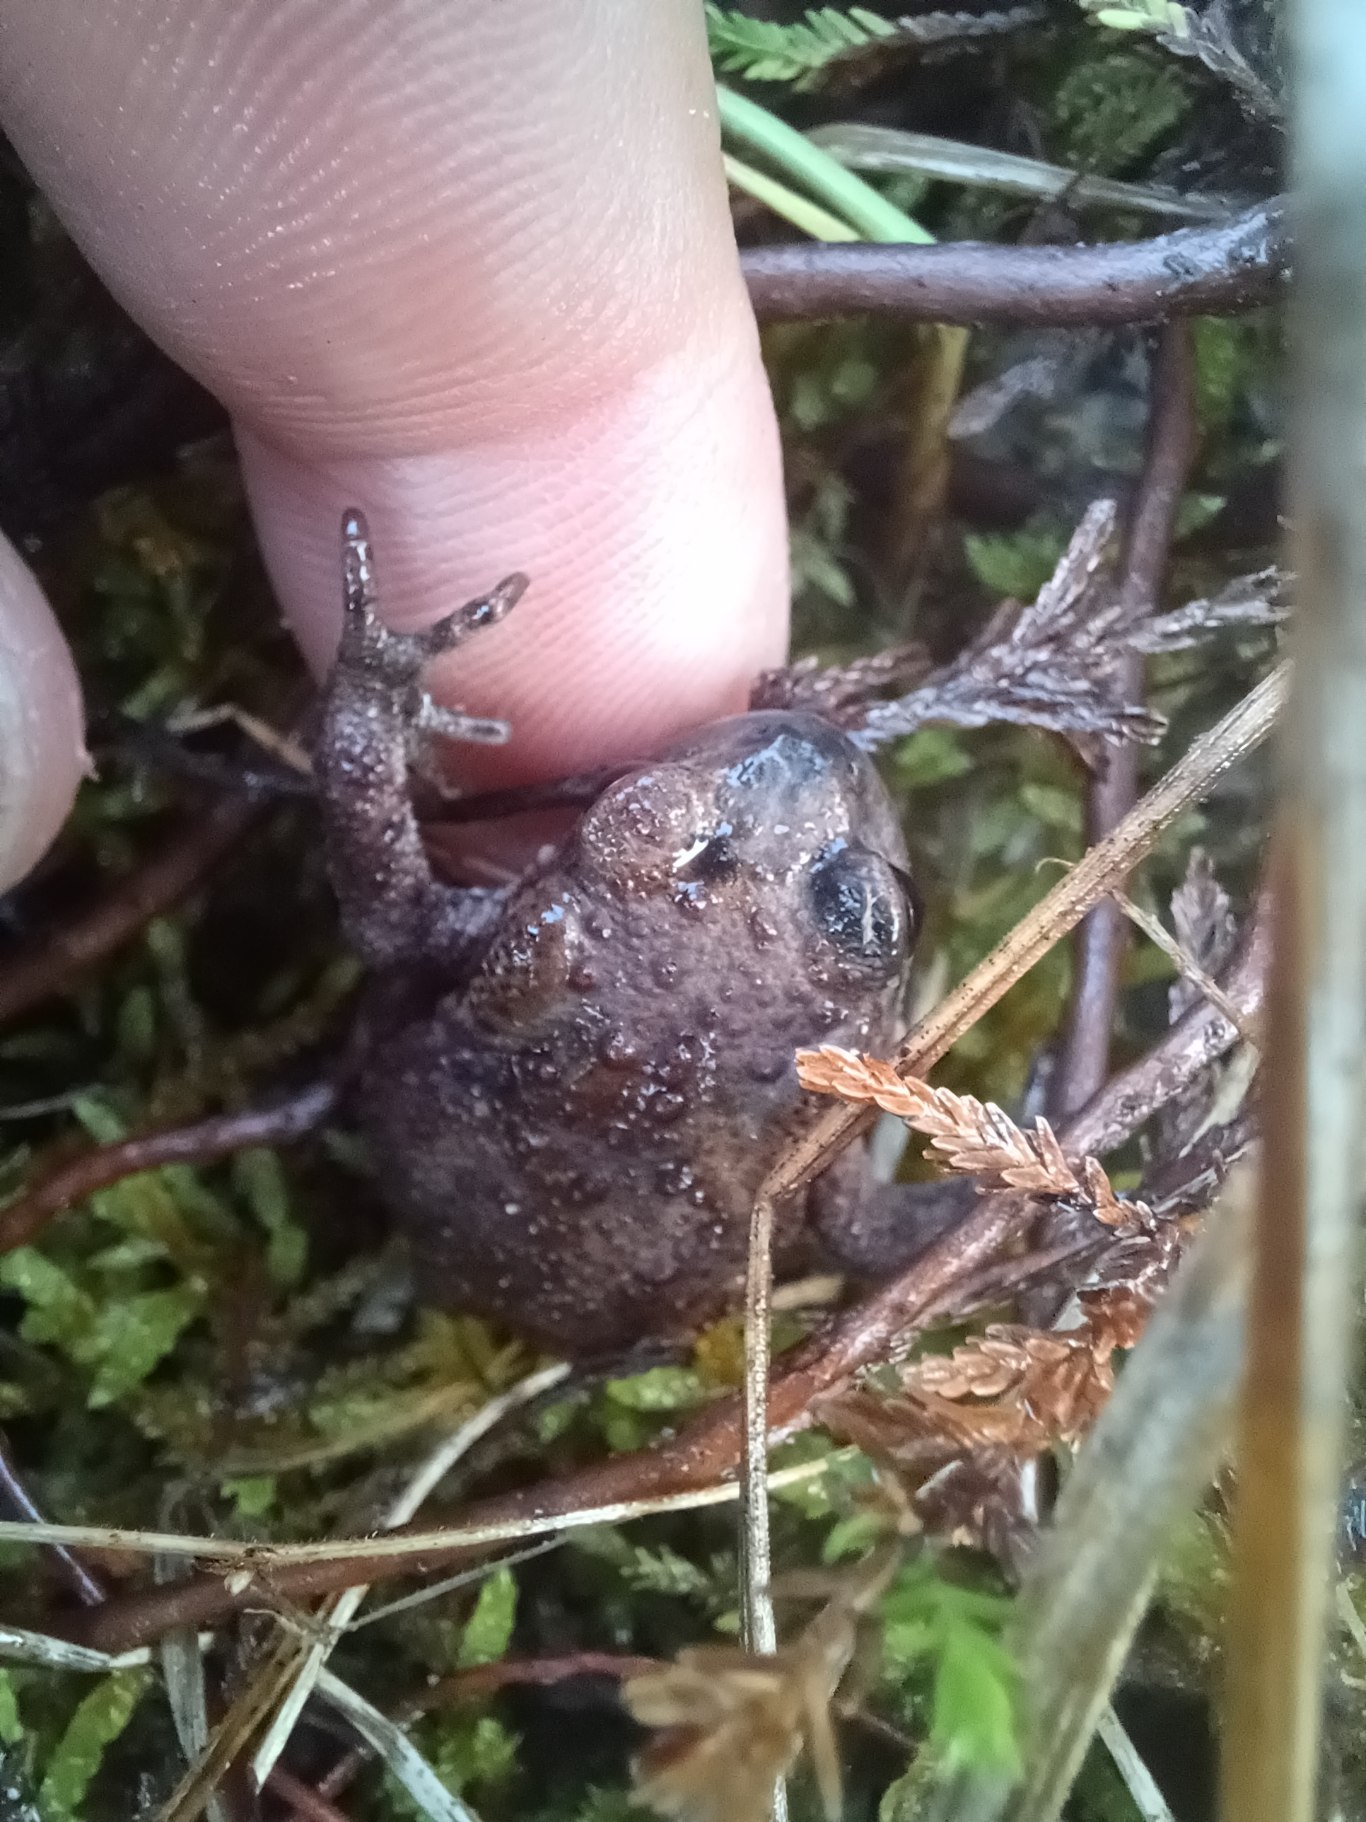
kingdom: Animalia
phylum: Chordata
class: Amphibia
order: Anura
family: Bufonidae
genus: Bufo
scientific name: Bufo bufo
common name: Skrubtudse
